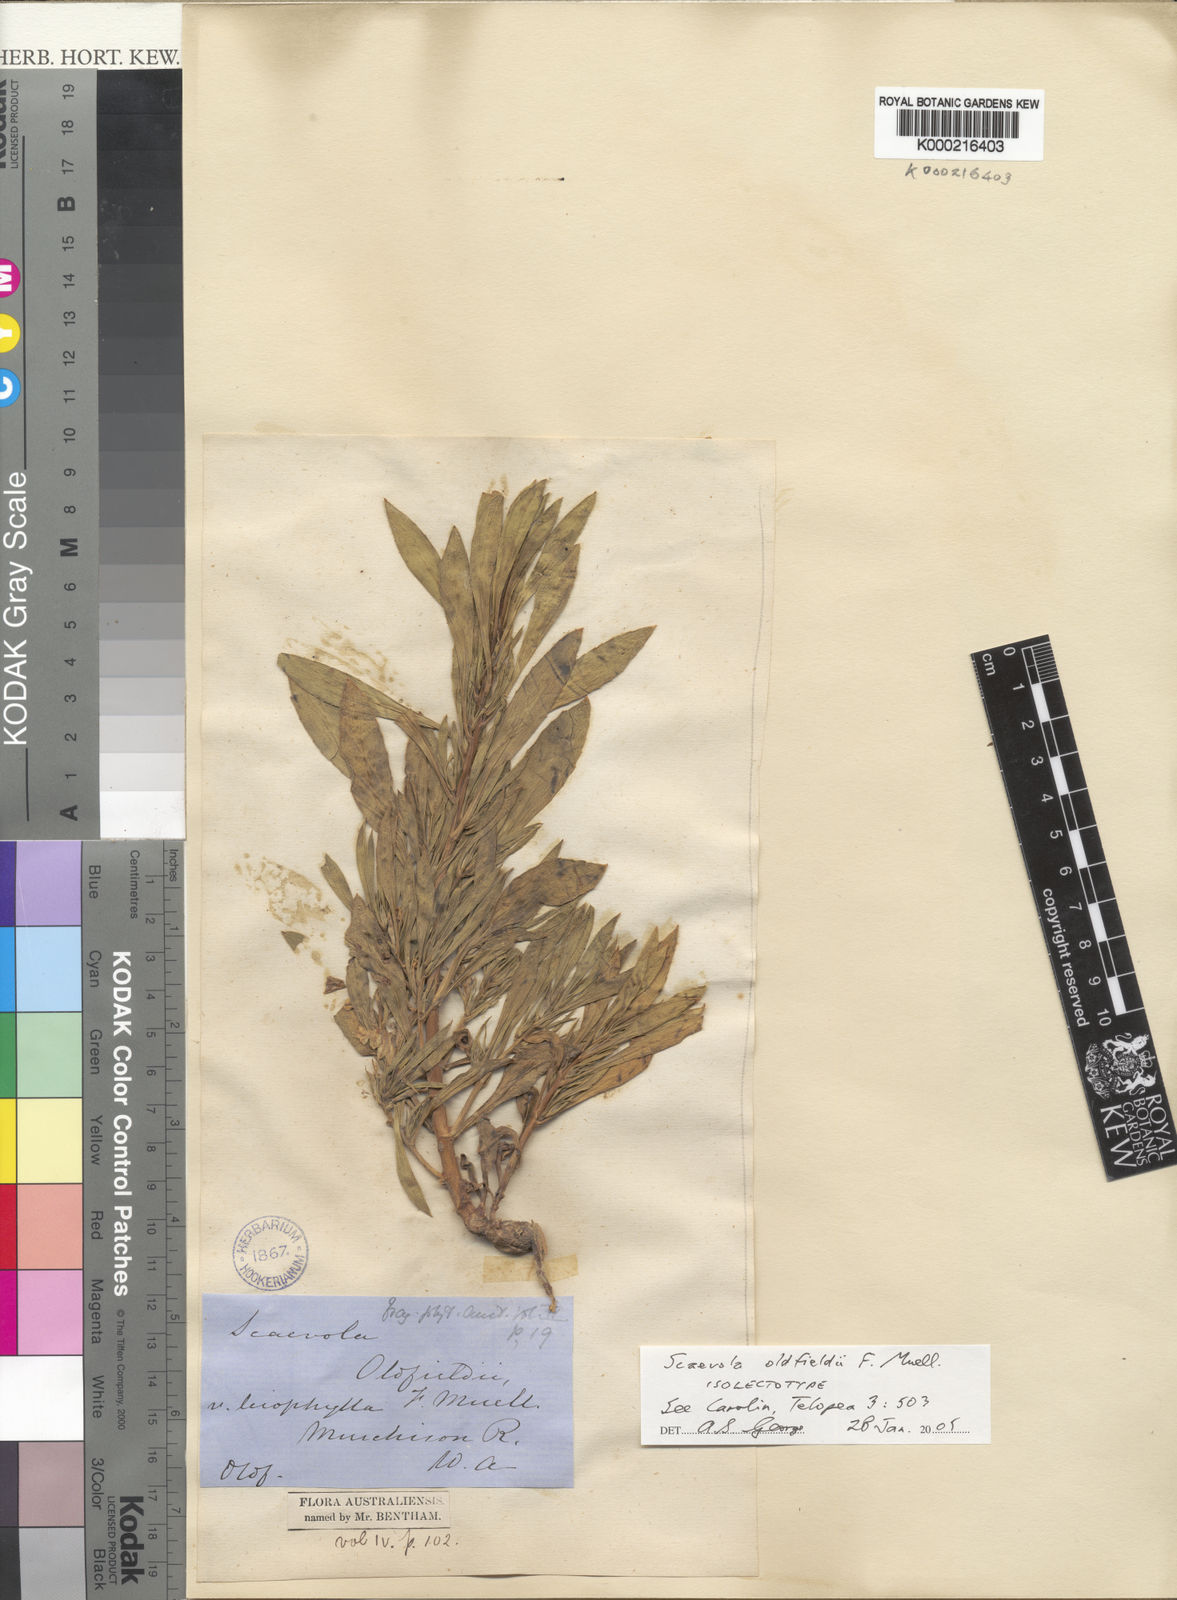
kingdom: Plantae
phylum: Tracheophyta
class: Magnoliopsida
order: Asterales
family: Goodeniaceae
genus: Scaevola
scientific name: Scaevola oldfieldii
